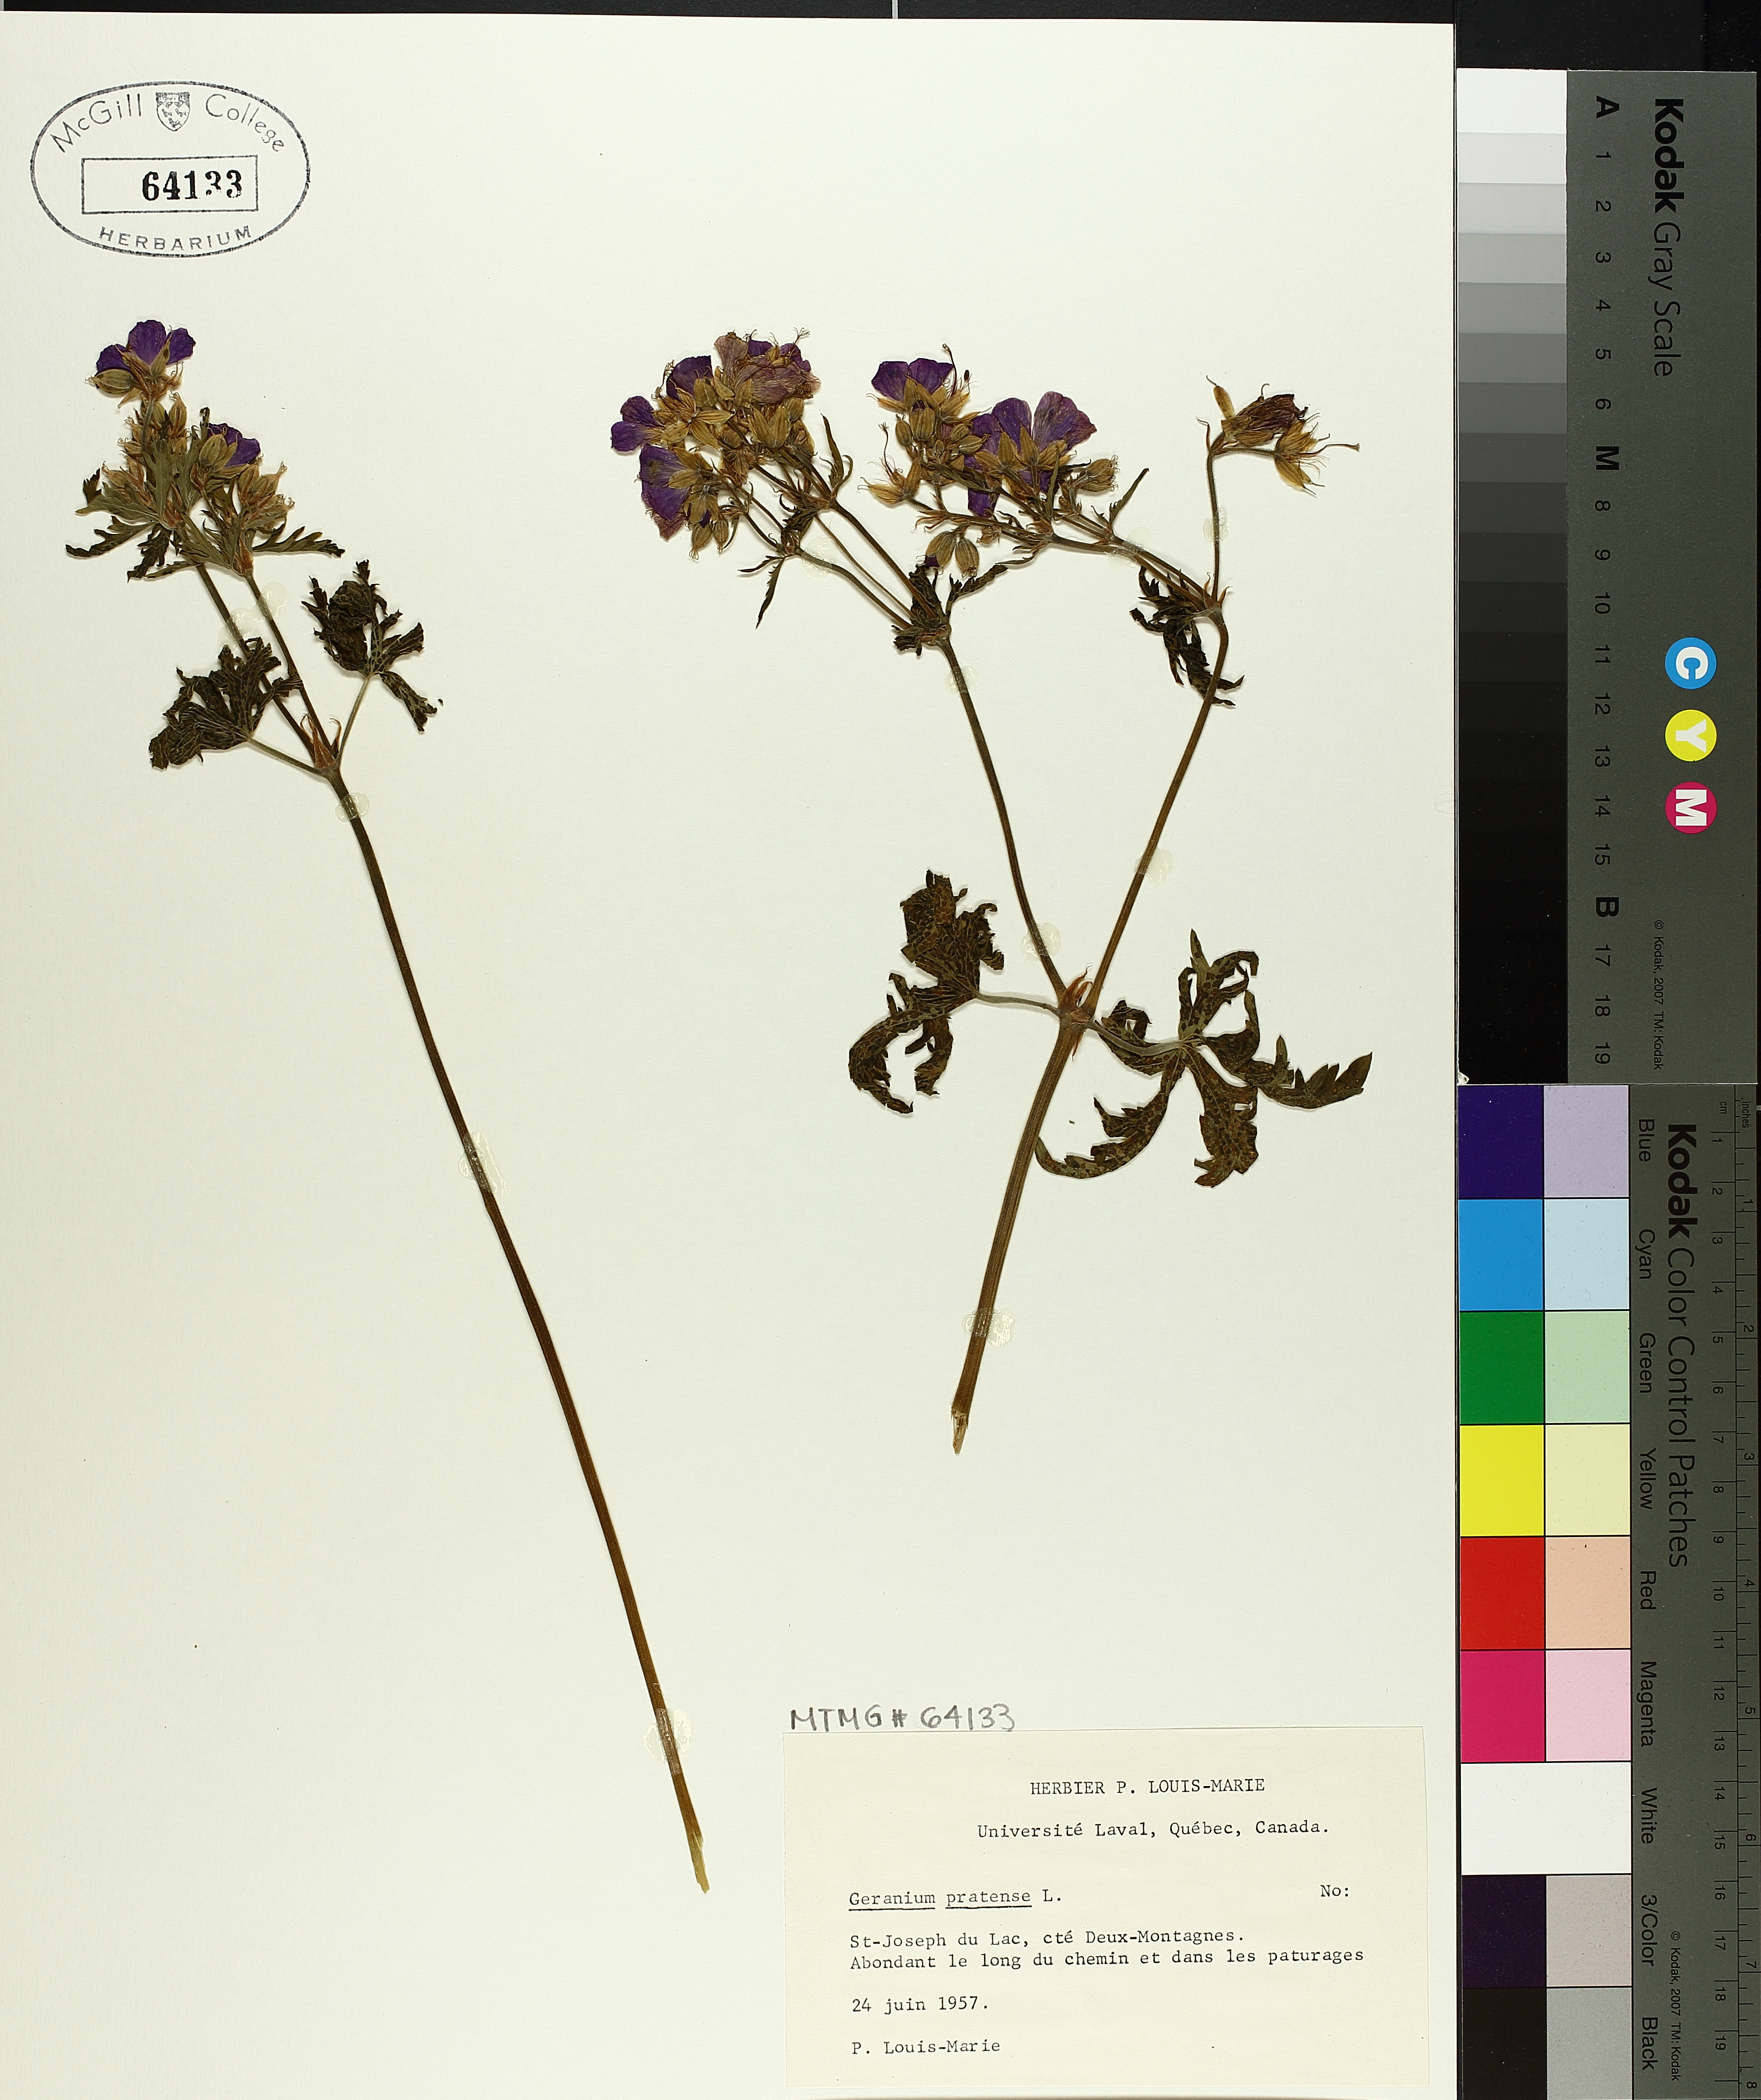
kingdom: Plantae
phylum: Tracheophyta
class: Magnoliopsida
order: Geraniales
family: Geraniaceae
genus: Geranium
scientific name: Geranium pratense
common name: Meadow crane's-bill
